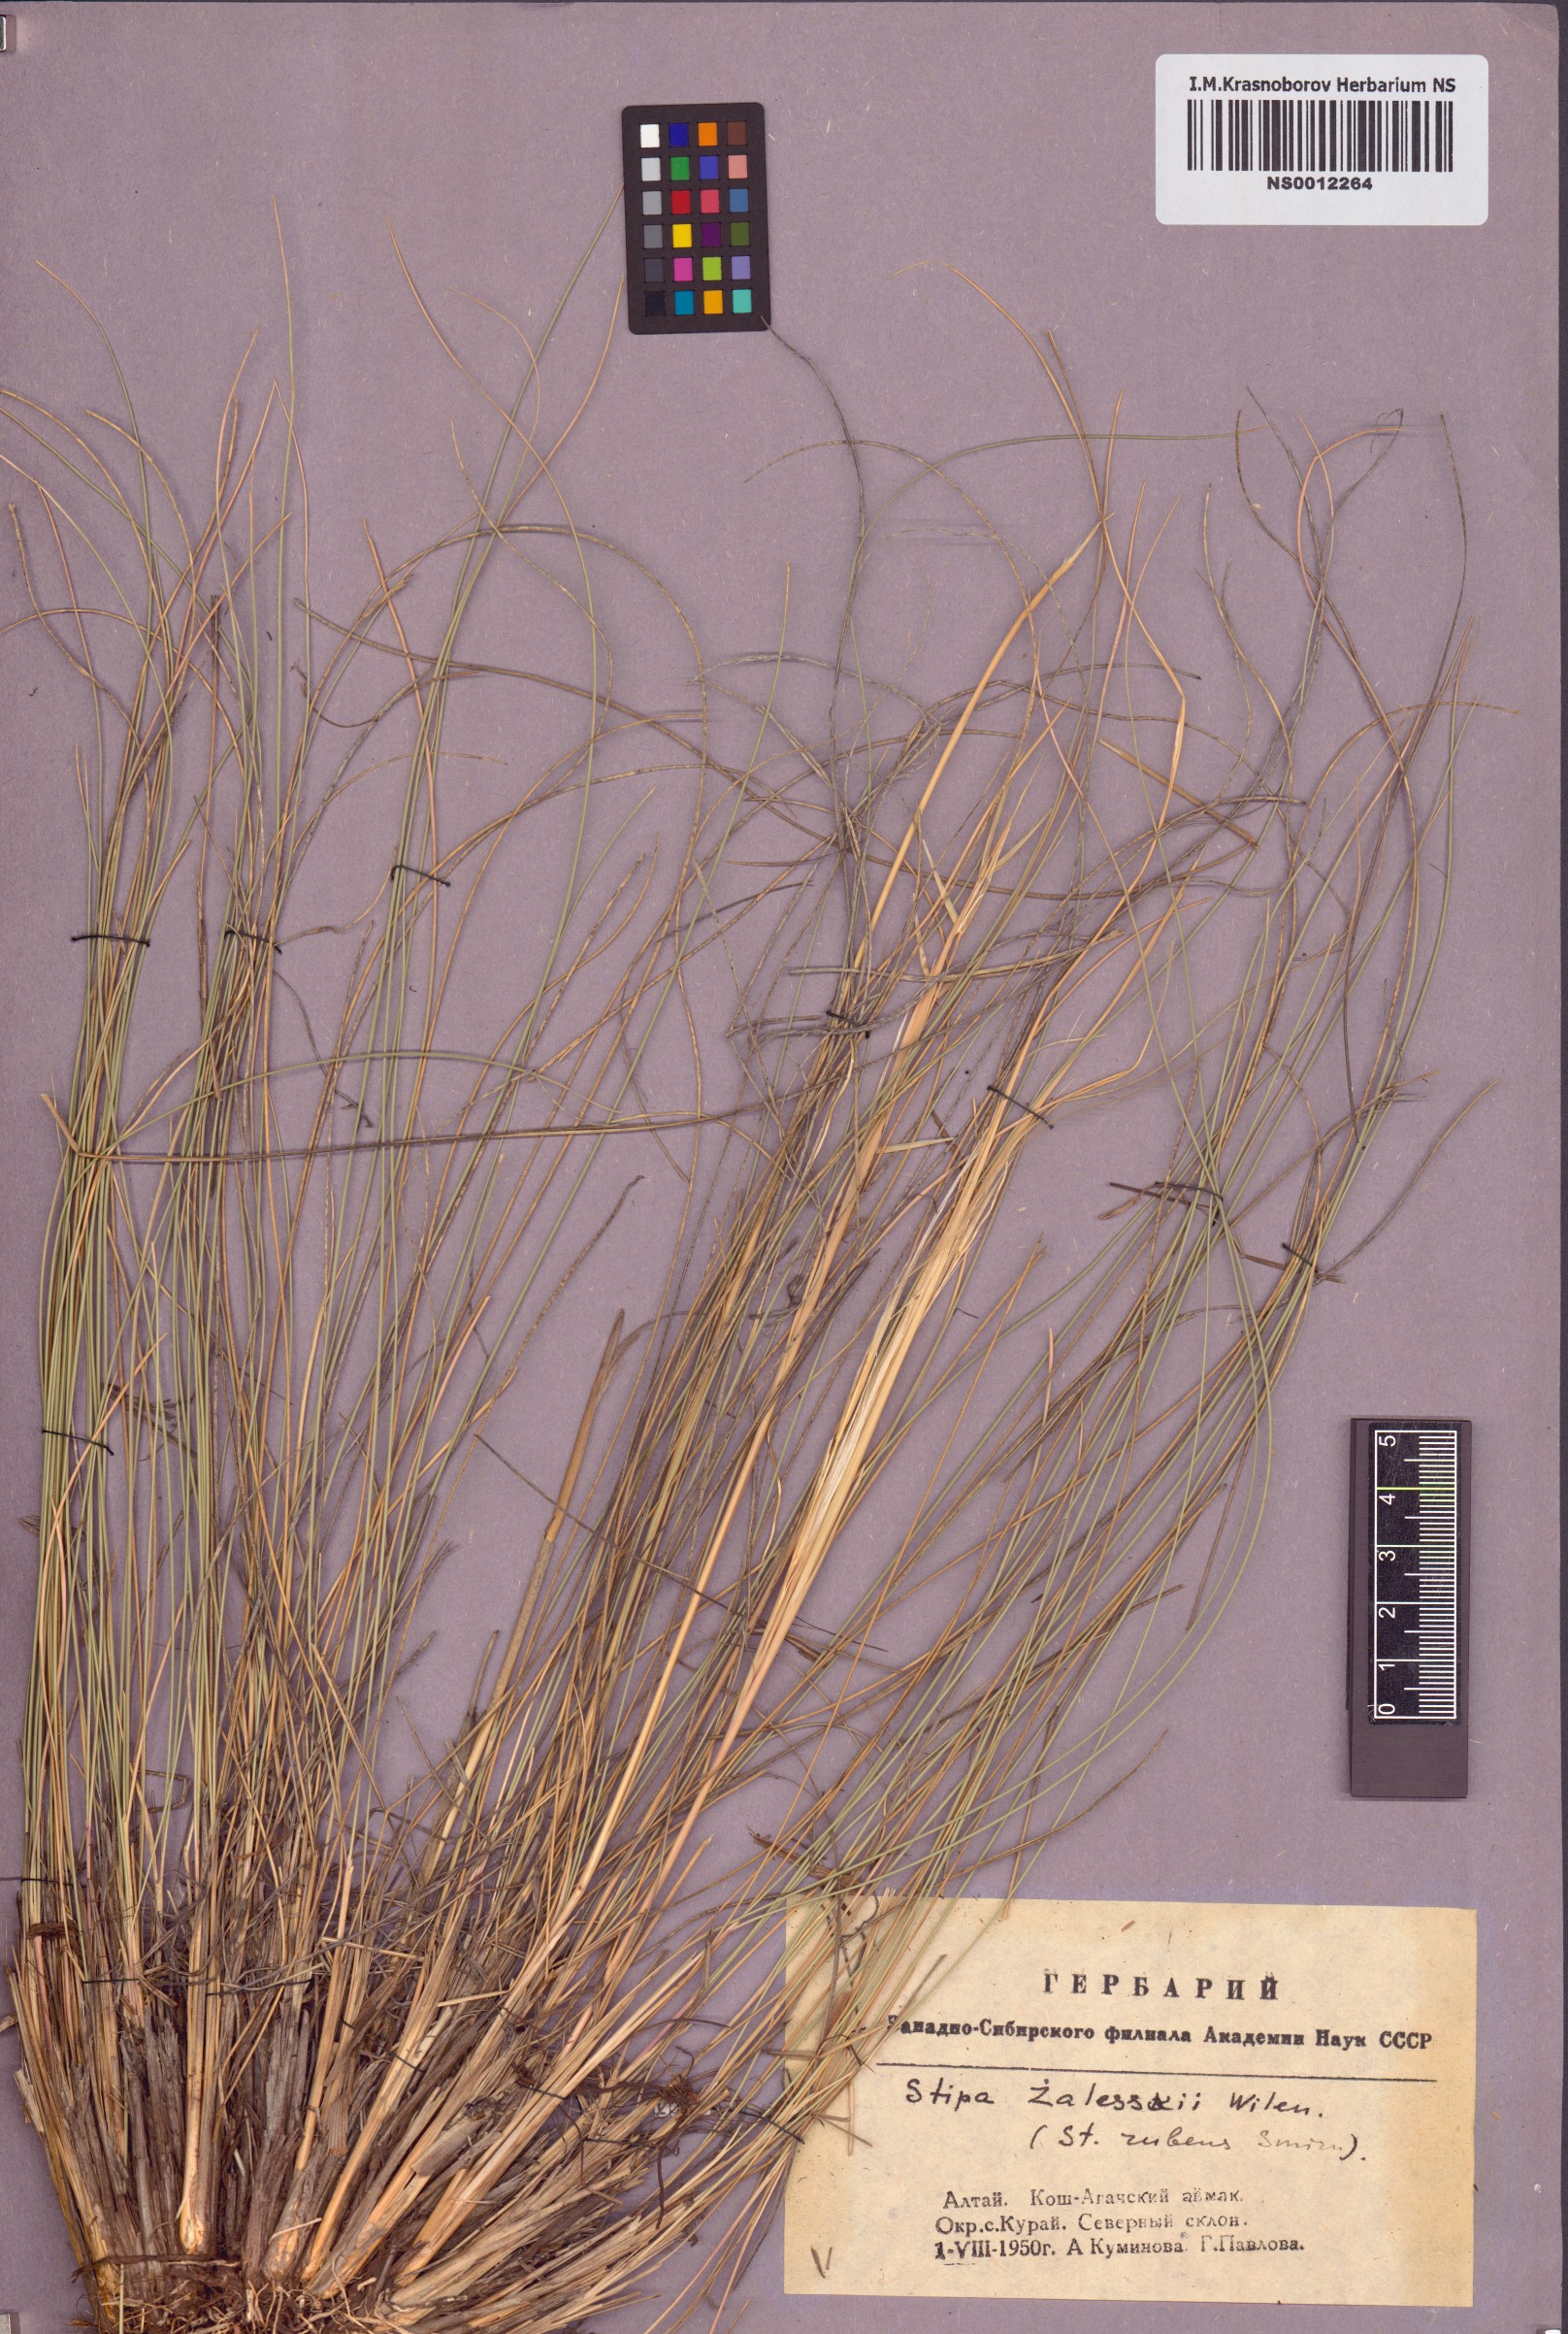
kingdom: Plantae
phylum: Tracheophyta
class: Liliopsida
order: Poales
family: Poaceae
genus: Stipa
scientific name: Stipa zalesskii
